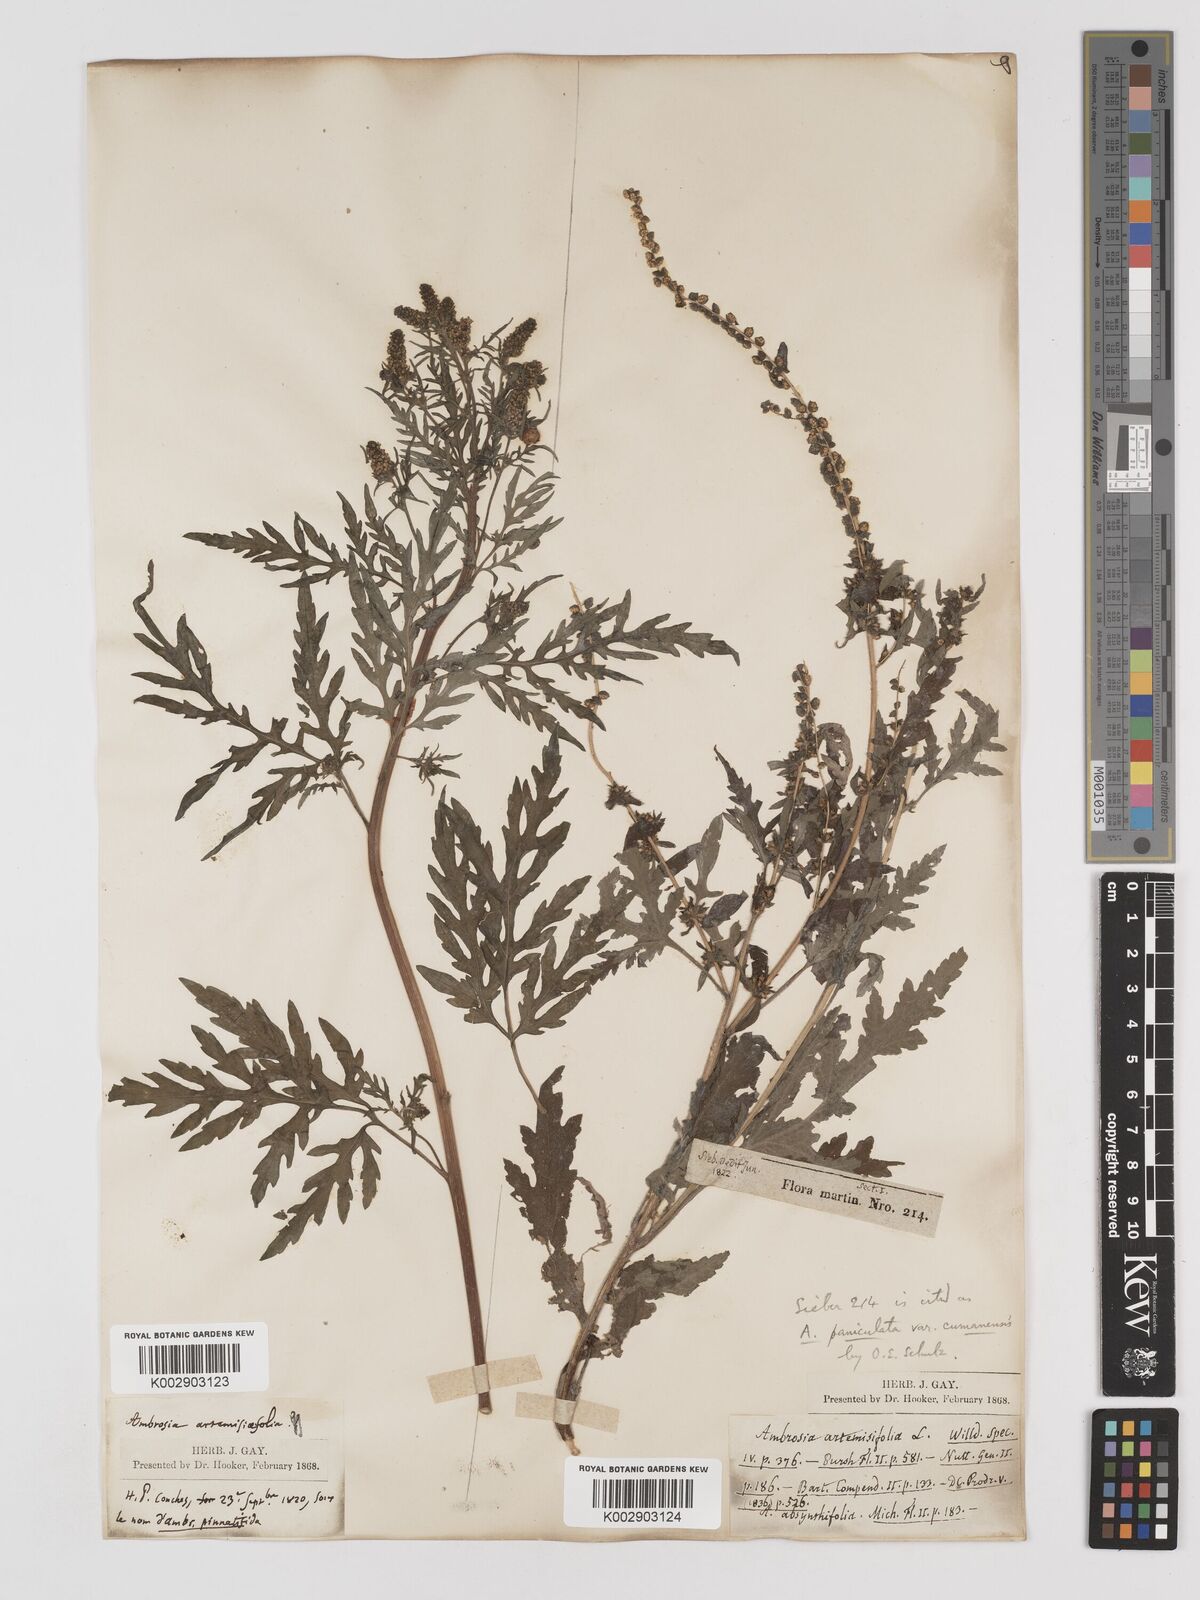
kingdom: Plantae
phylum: Tracheophyta
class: Magnoliopsida
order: Asterales
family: Asteraceae
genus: Ambrosia
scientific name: Ambrosia cumanensis
